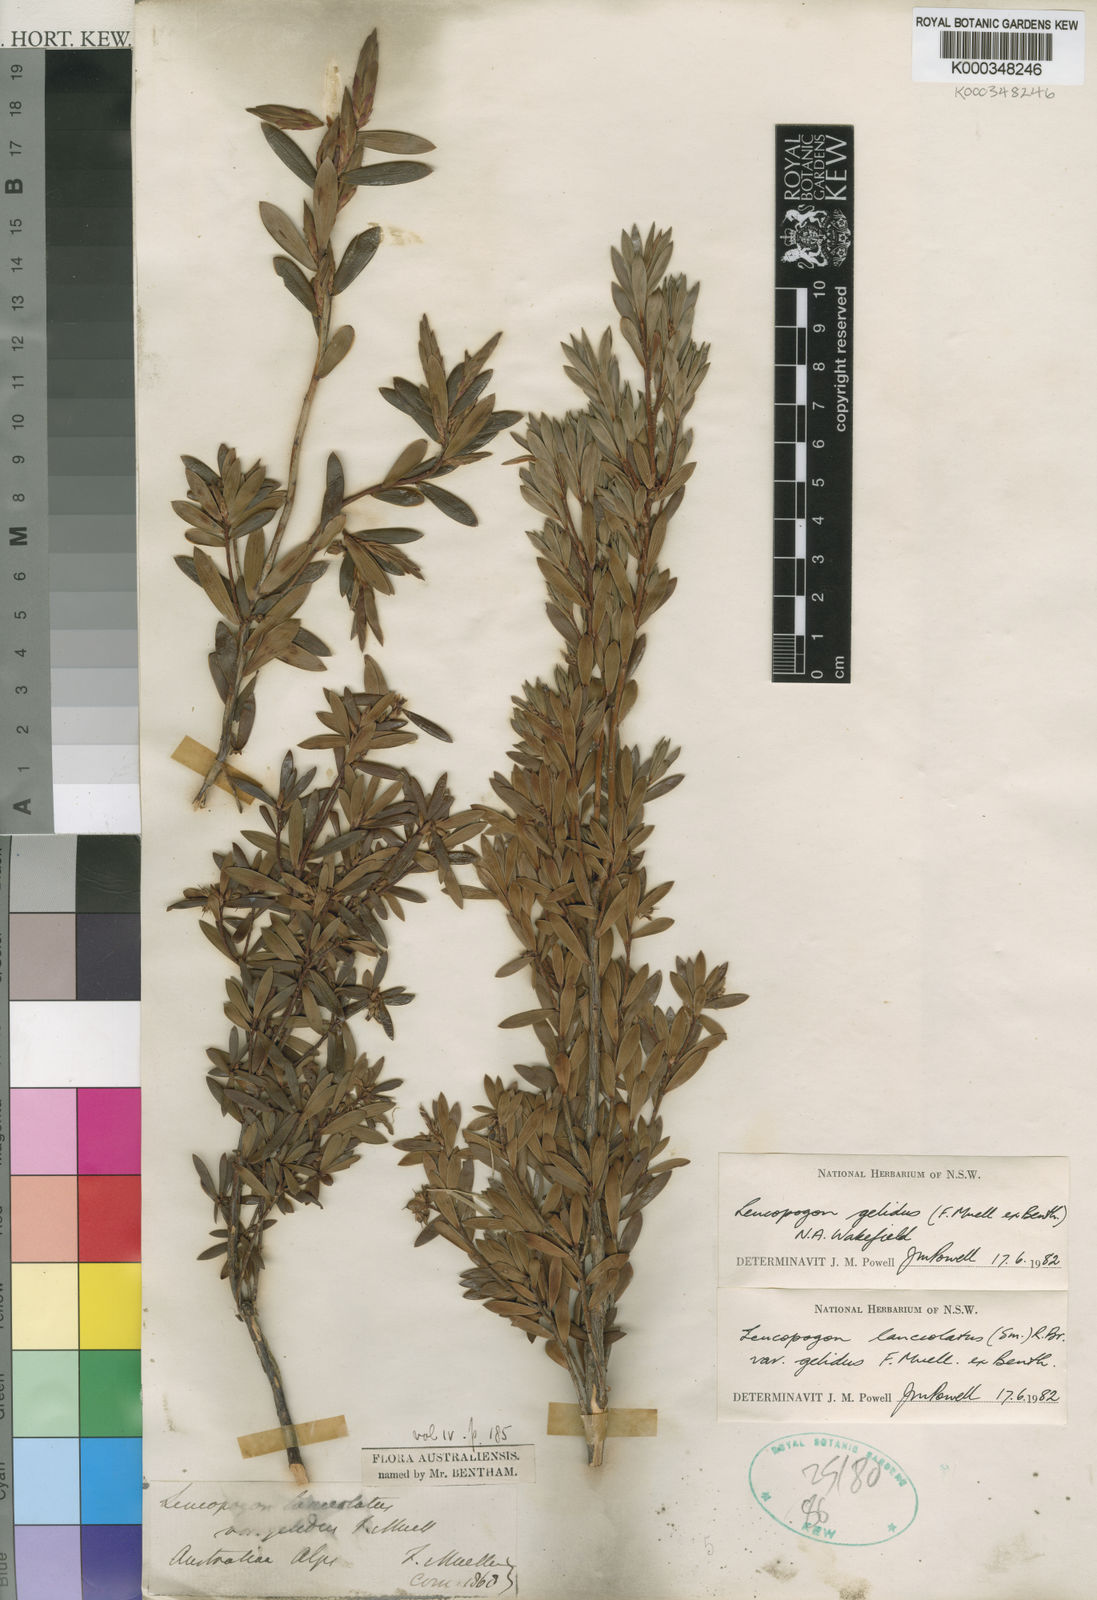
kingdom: Plantae
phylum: Tracheophyta
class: Magnoliopsida
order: Ericales
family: Ericaceae
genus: Leucopogon
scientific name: Leucopogon gelidus
